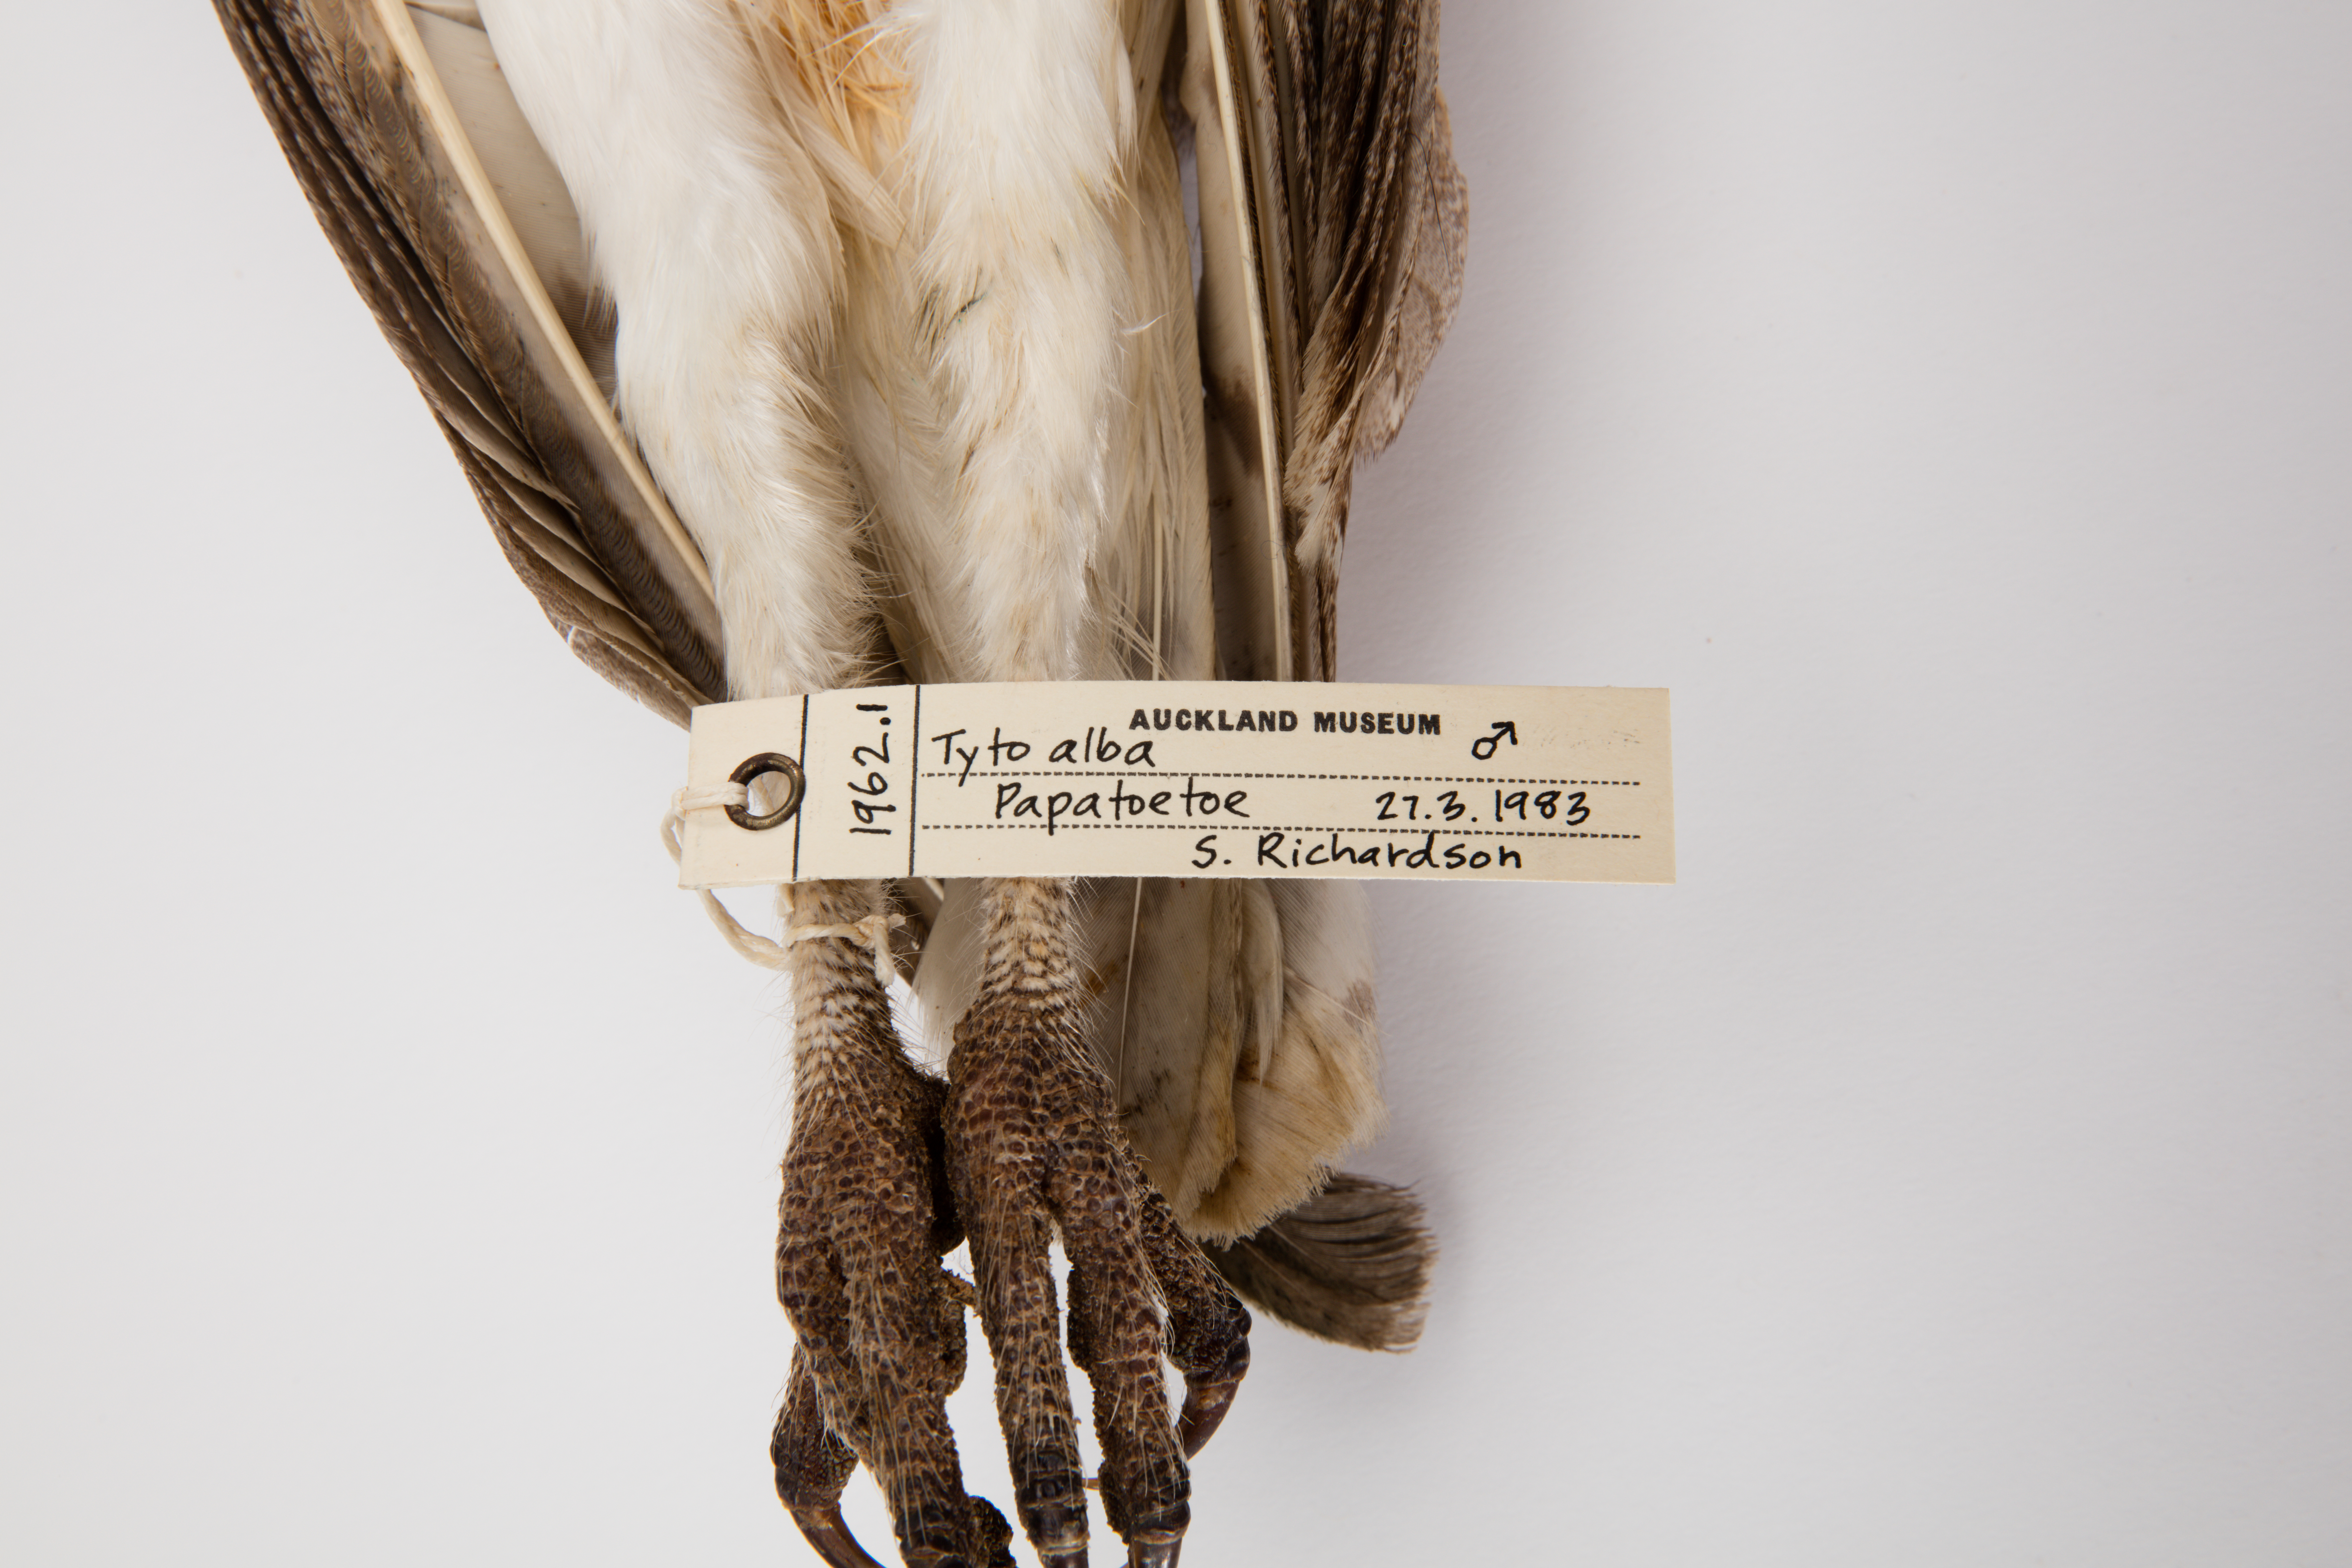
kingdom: Animalia
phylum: Chordata
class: Aves
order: Strigiformes
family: Tytonidae
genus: Tyto
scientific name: Tyto alba
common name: Barn owl
